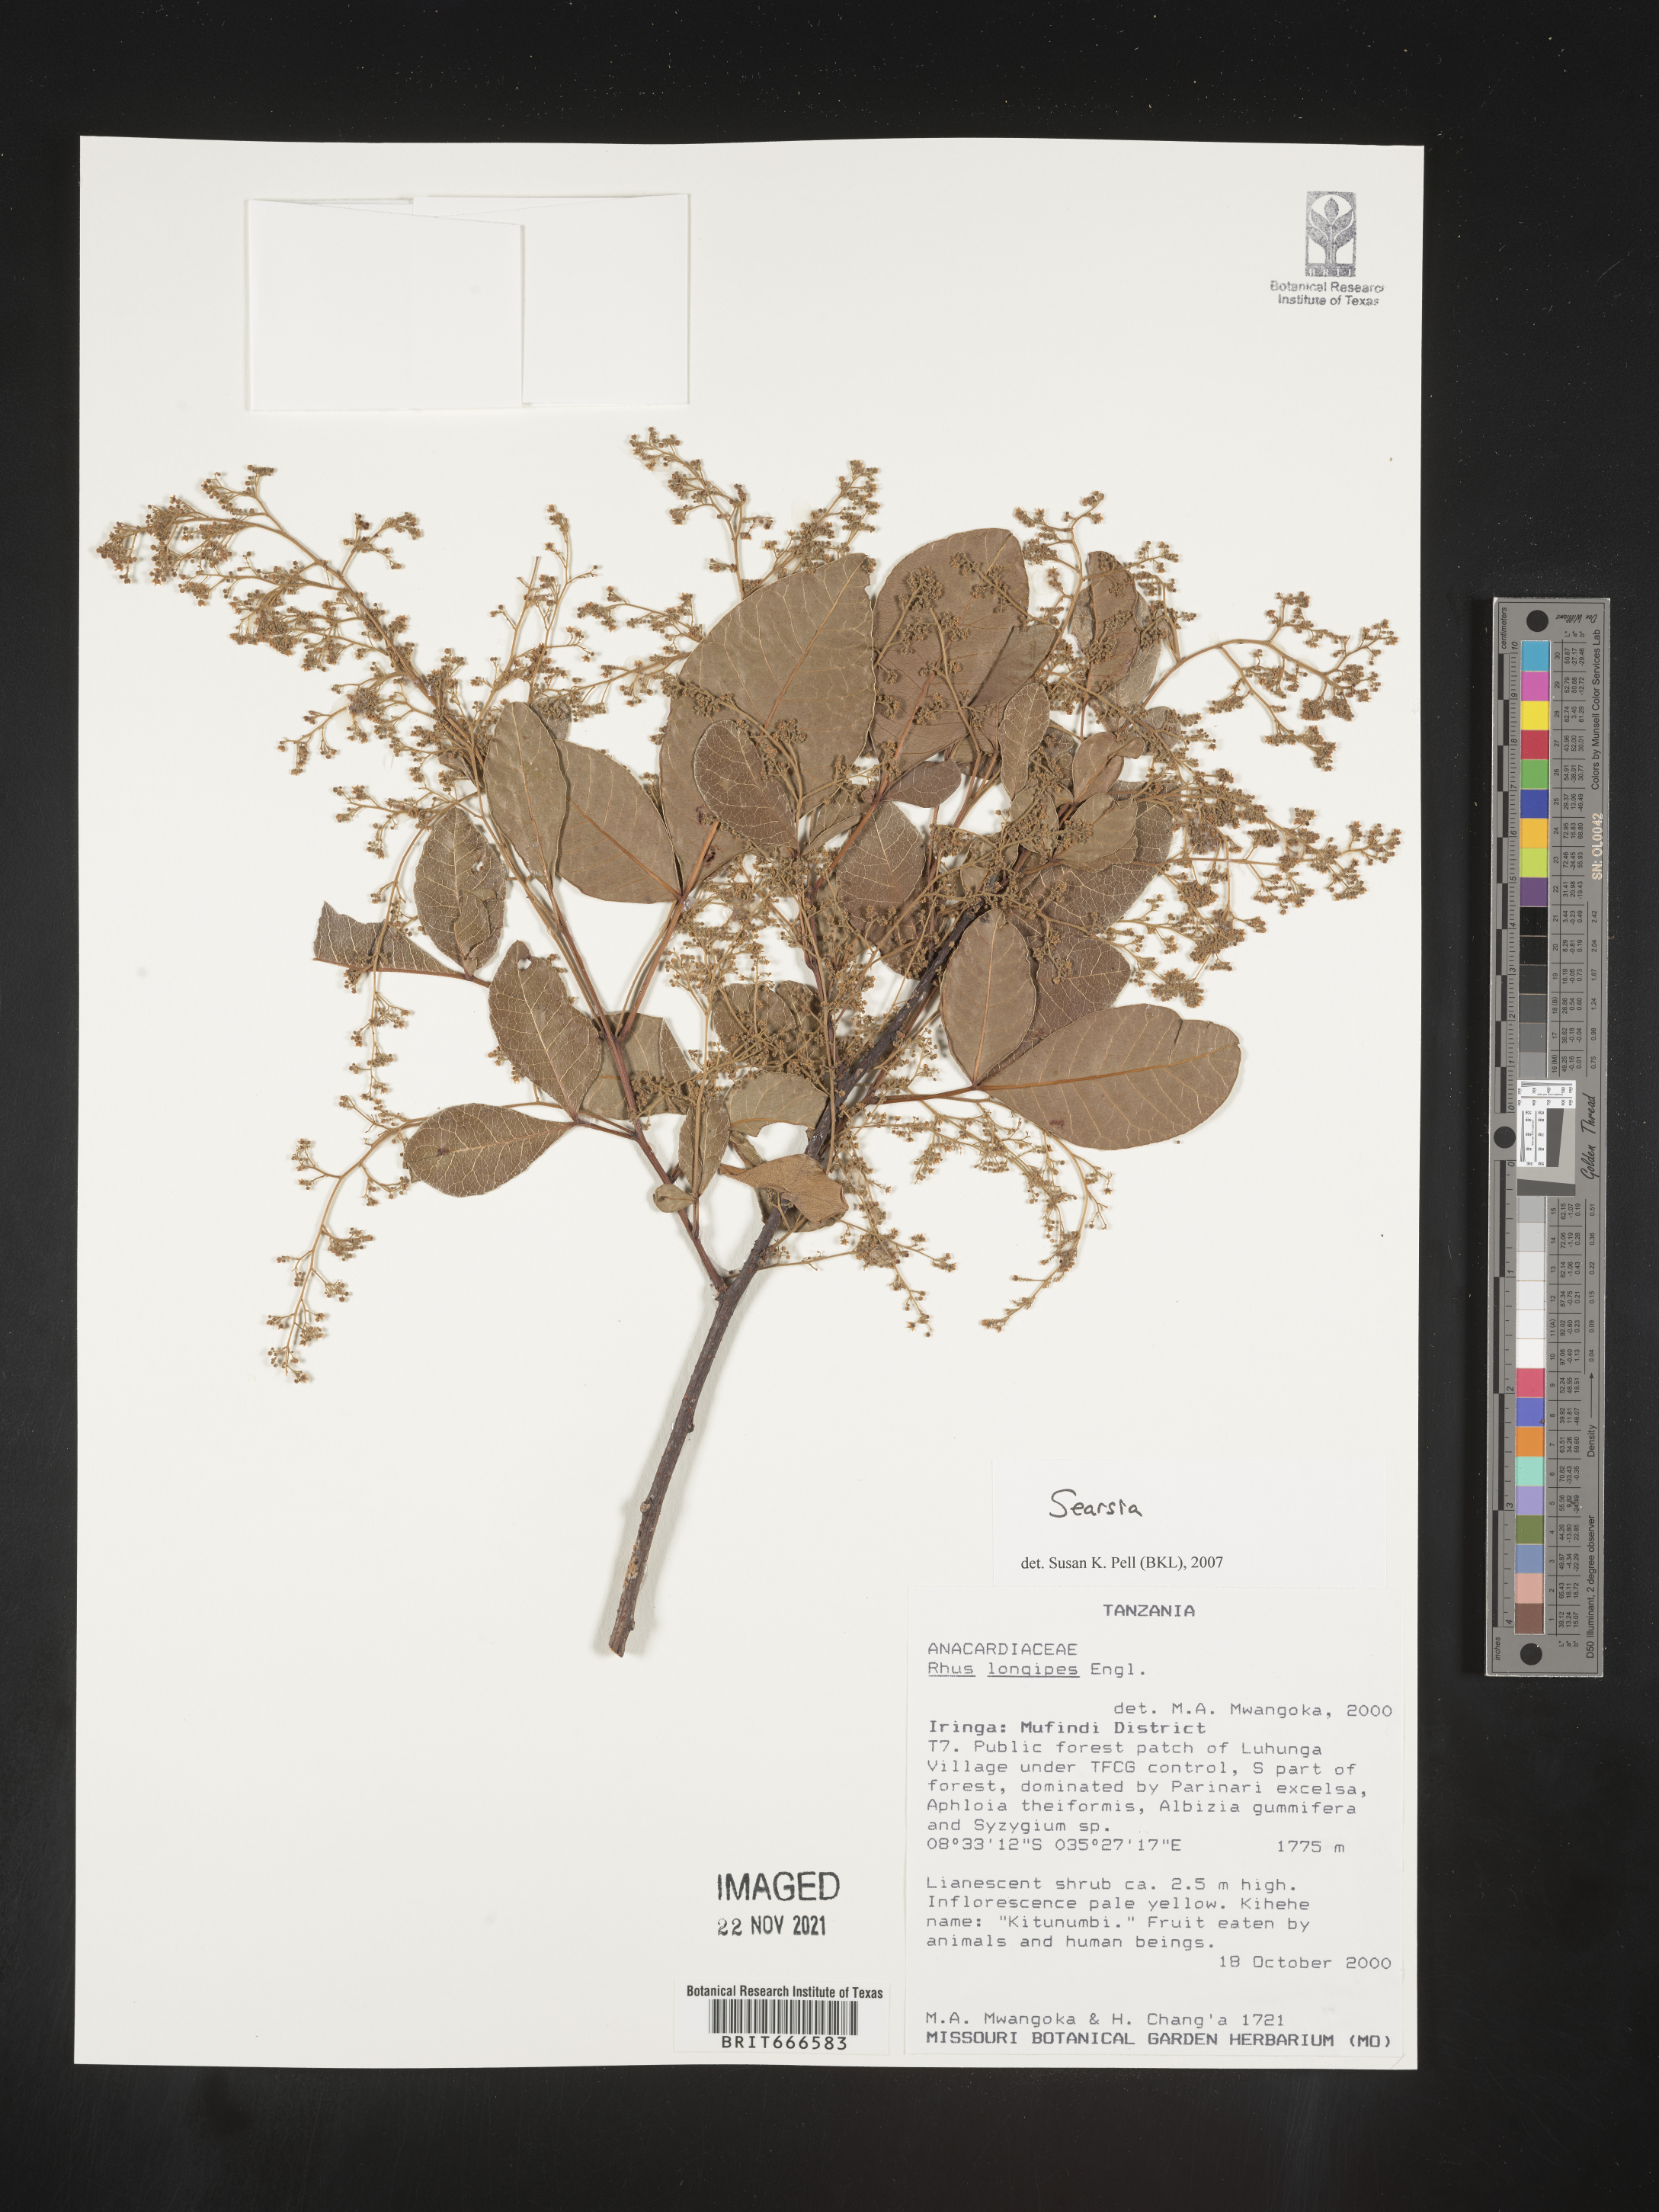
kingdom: Plantae
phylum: Tracheophyta
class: Magnoliopsida
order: Sapindales
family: Anacardiaceae
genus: Searsia
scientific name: Searsia
